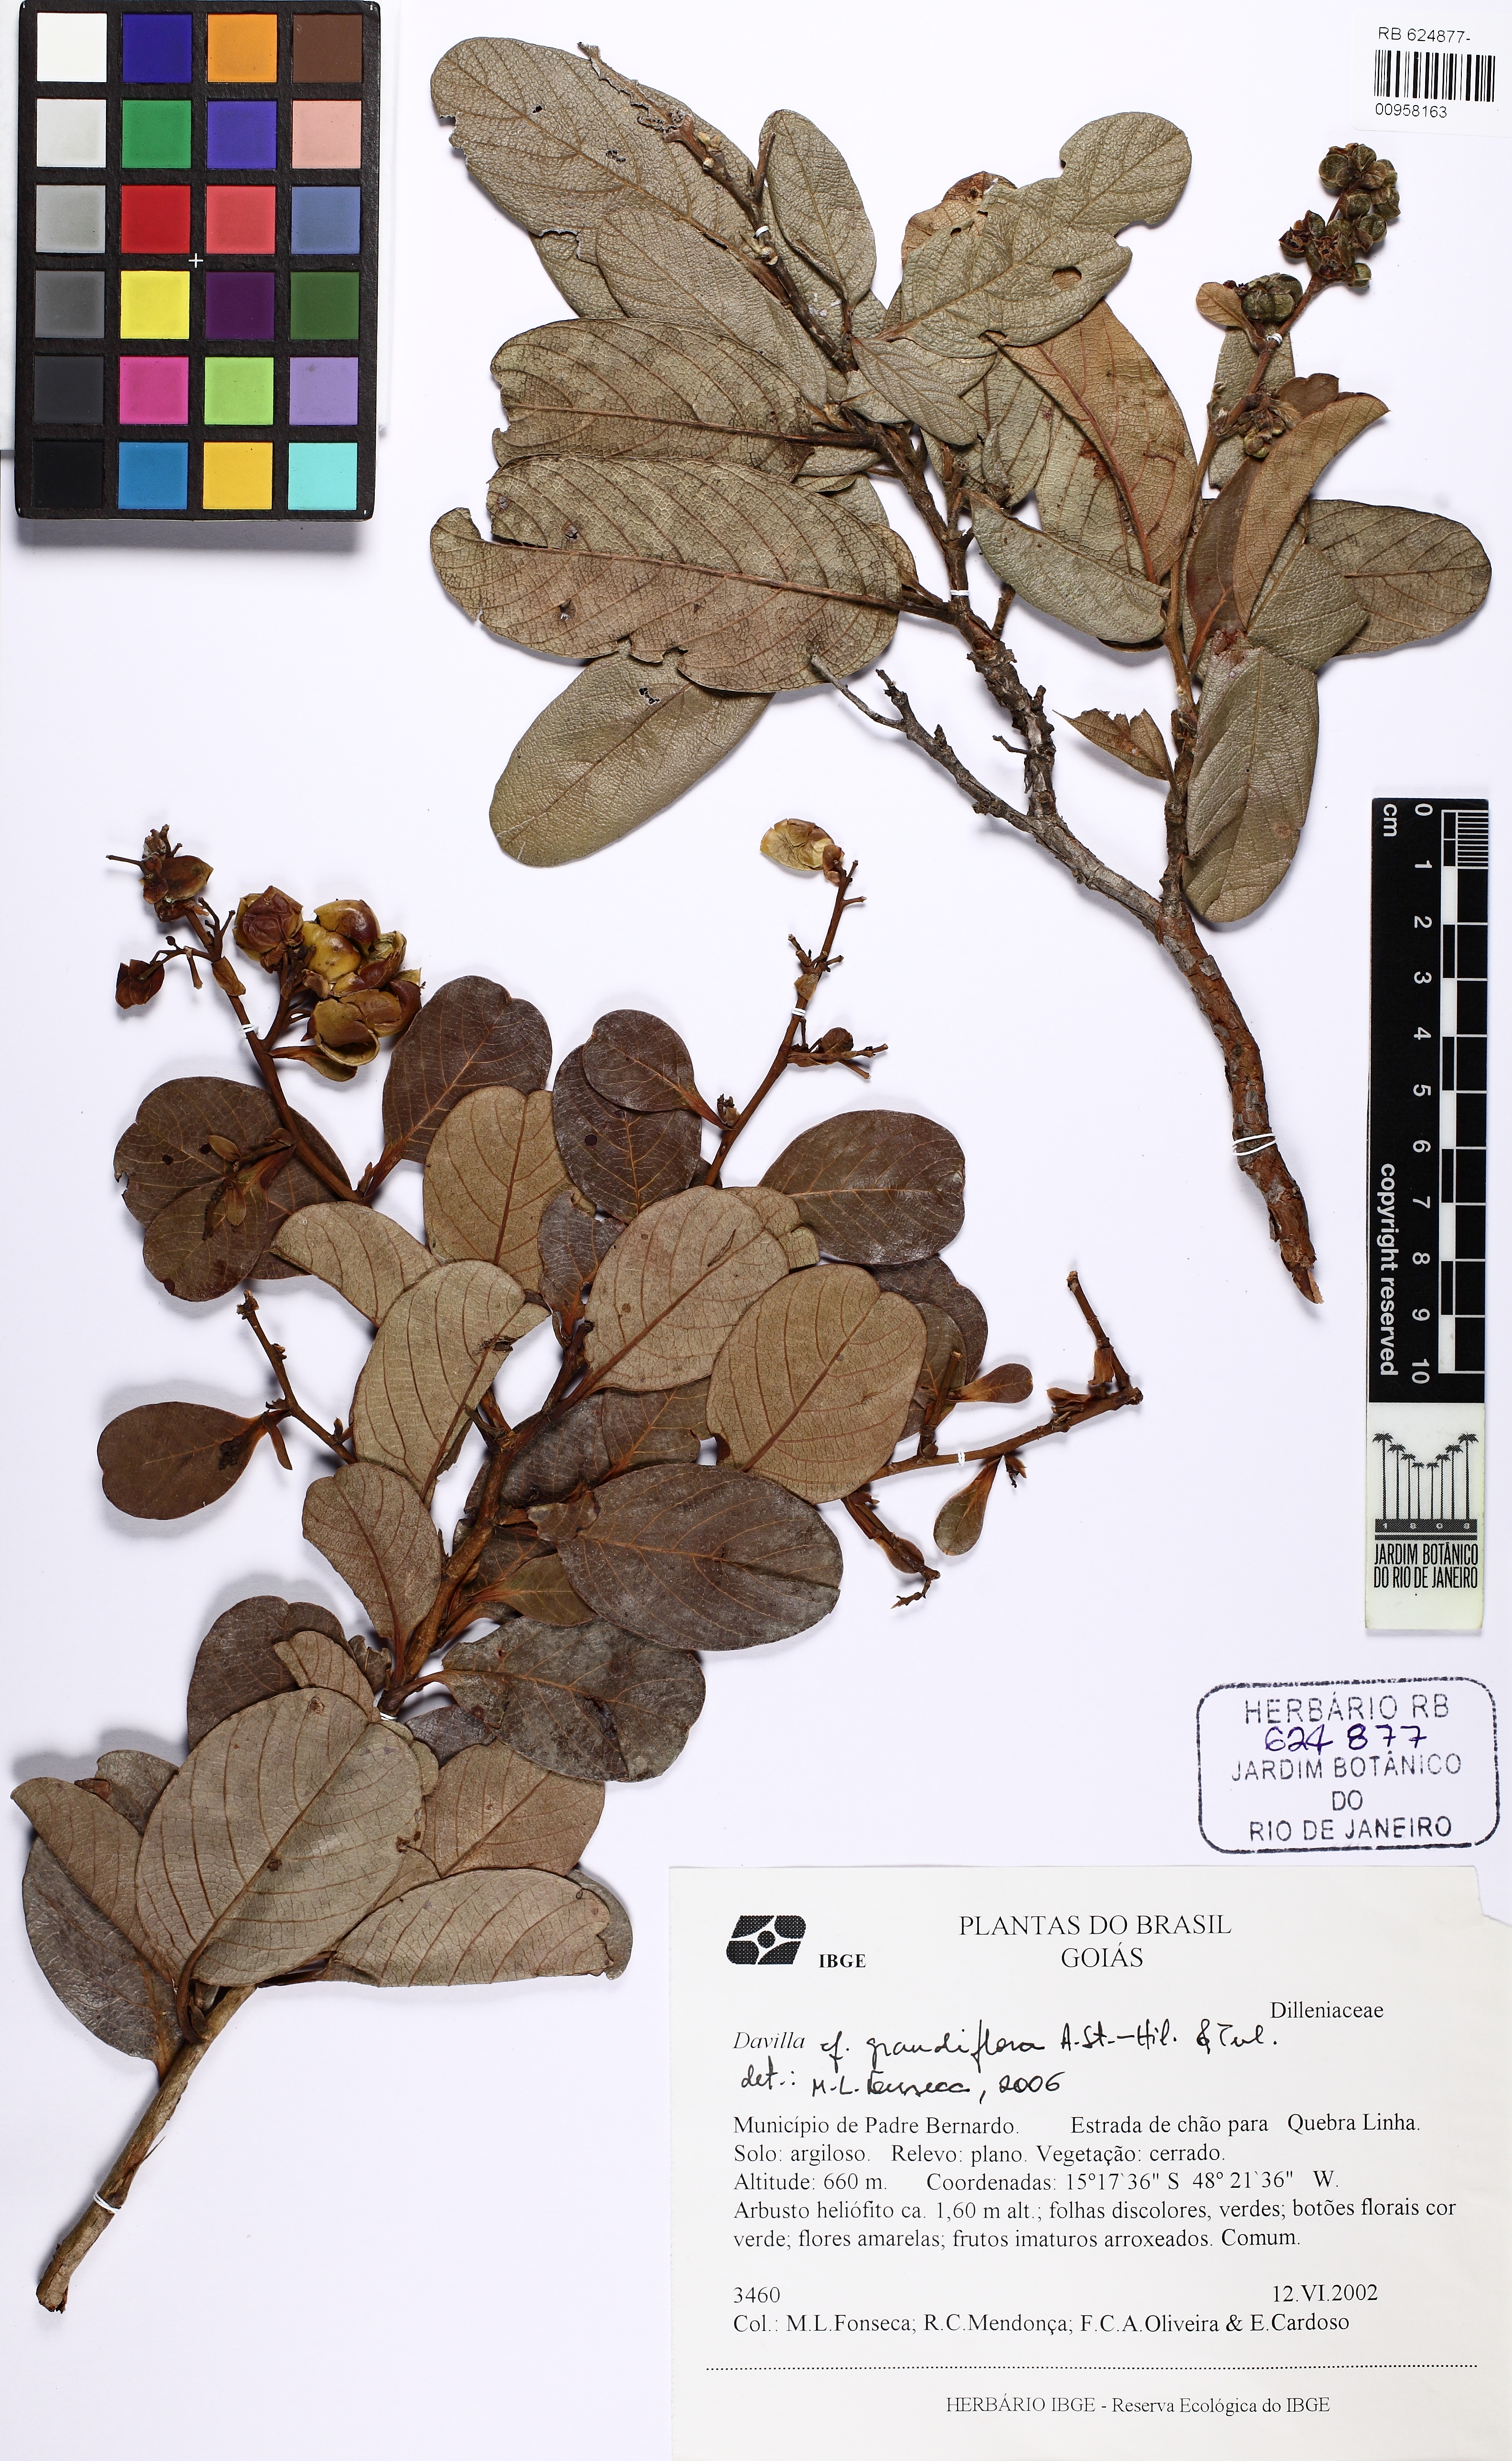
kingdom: Plantae
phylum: Tracheophyta
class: Magnoliopsida
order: Dilleniales
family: Dilleniaceae
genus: Davilla
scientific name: Davilla grandiflora
